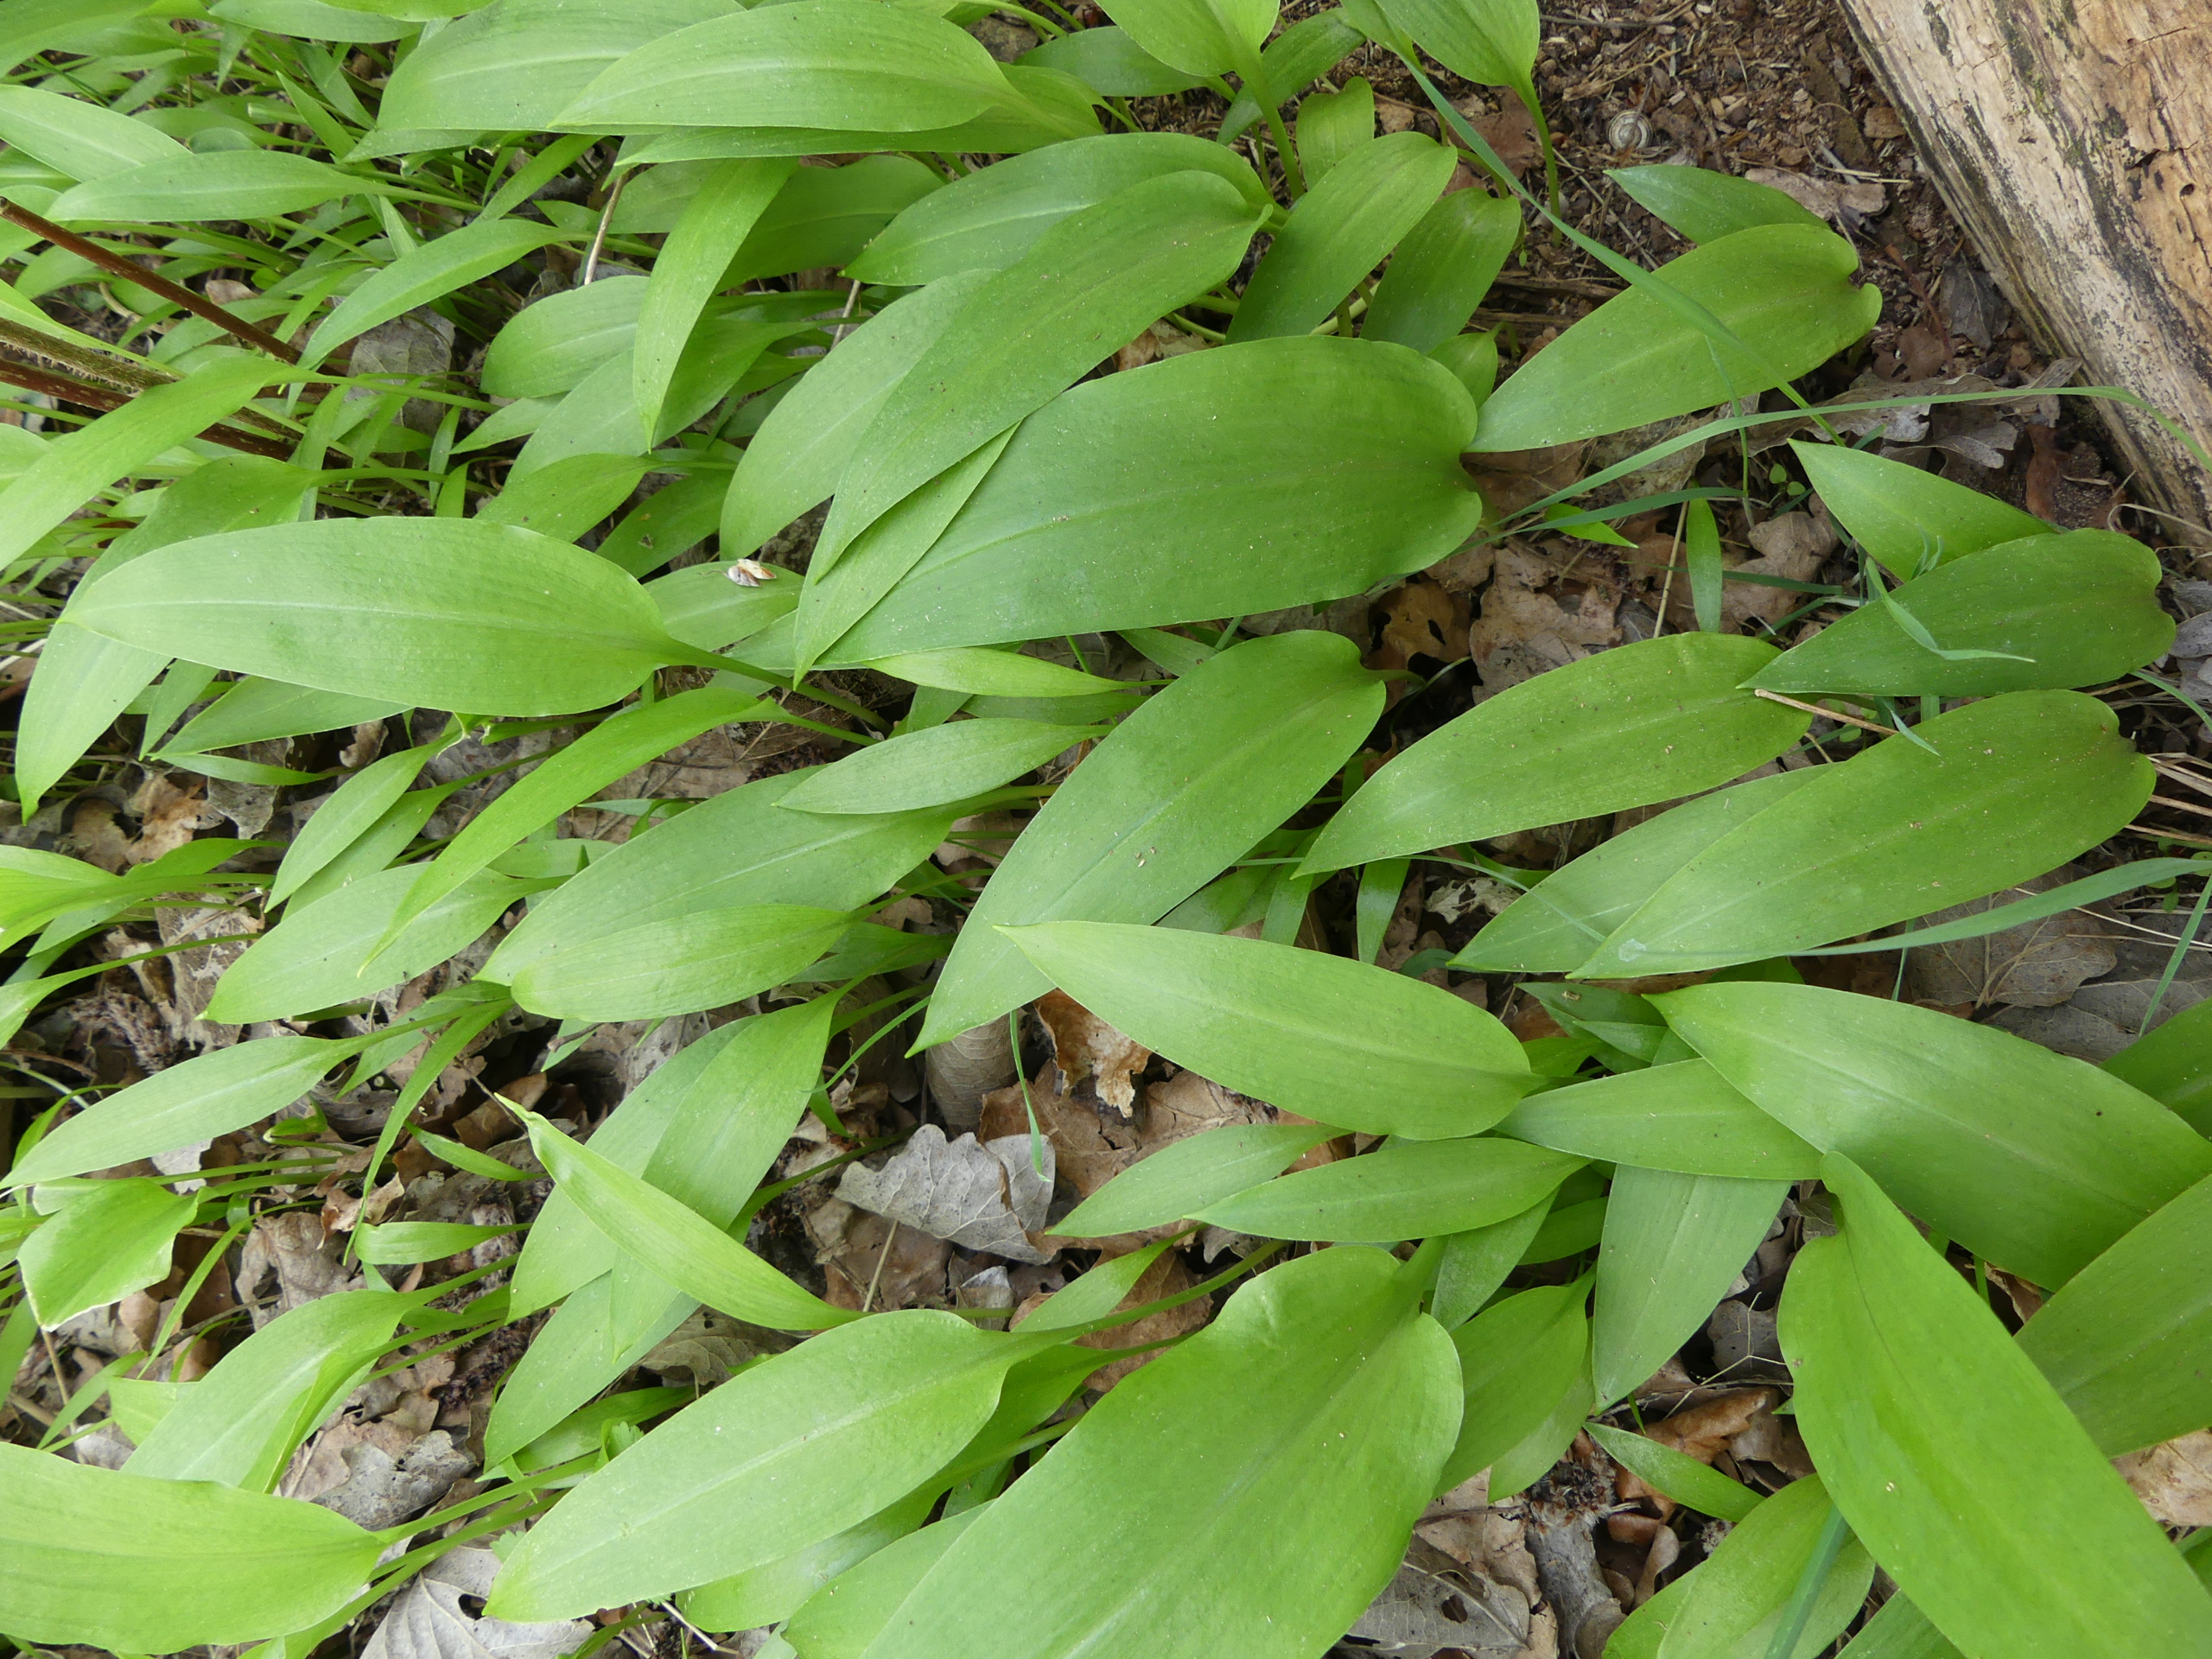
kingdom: Plantae
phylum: Tracheophyta
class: Liliopsida
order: Asparagales
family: Amaryllidaceae
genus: Allium
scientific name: Allium ursinum
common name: Rams-løg
